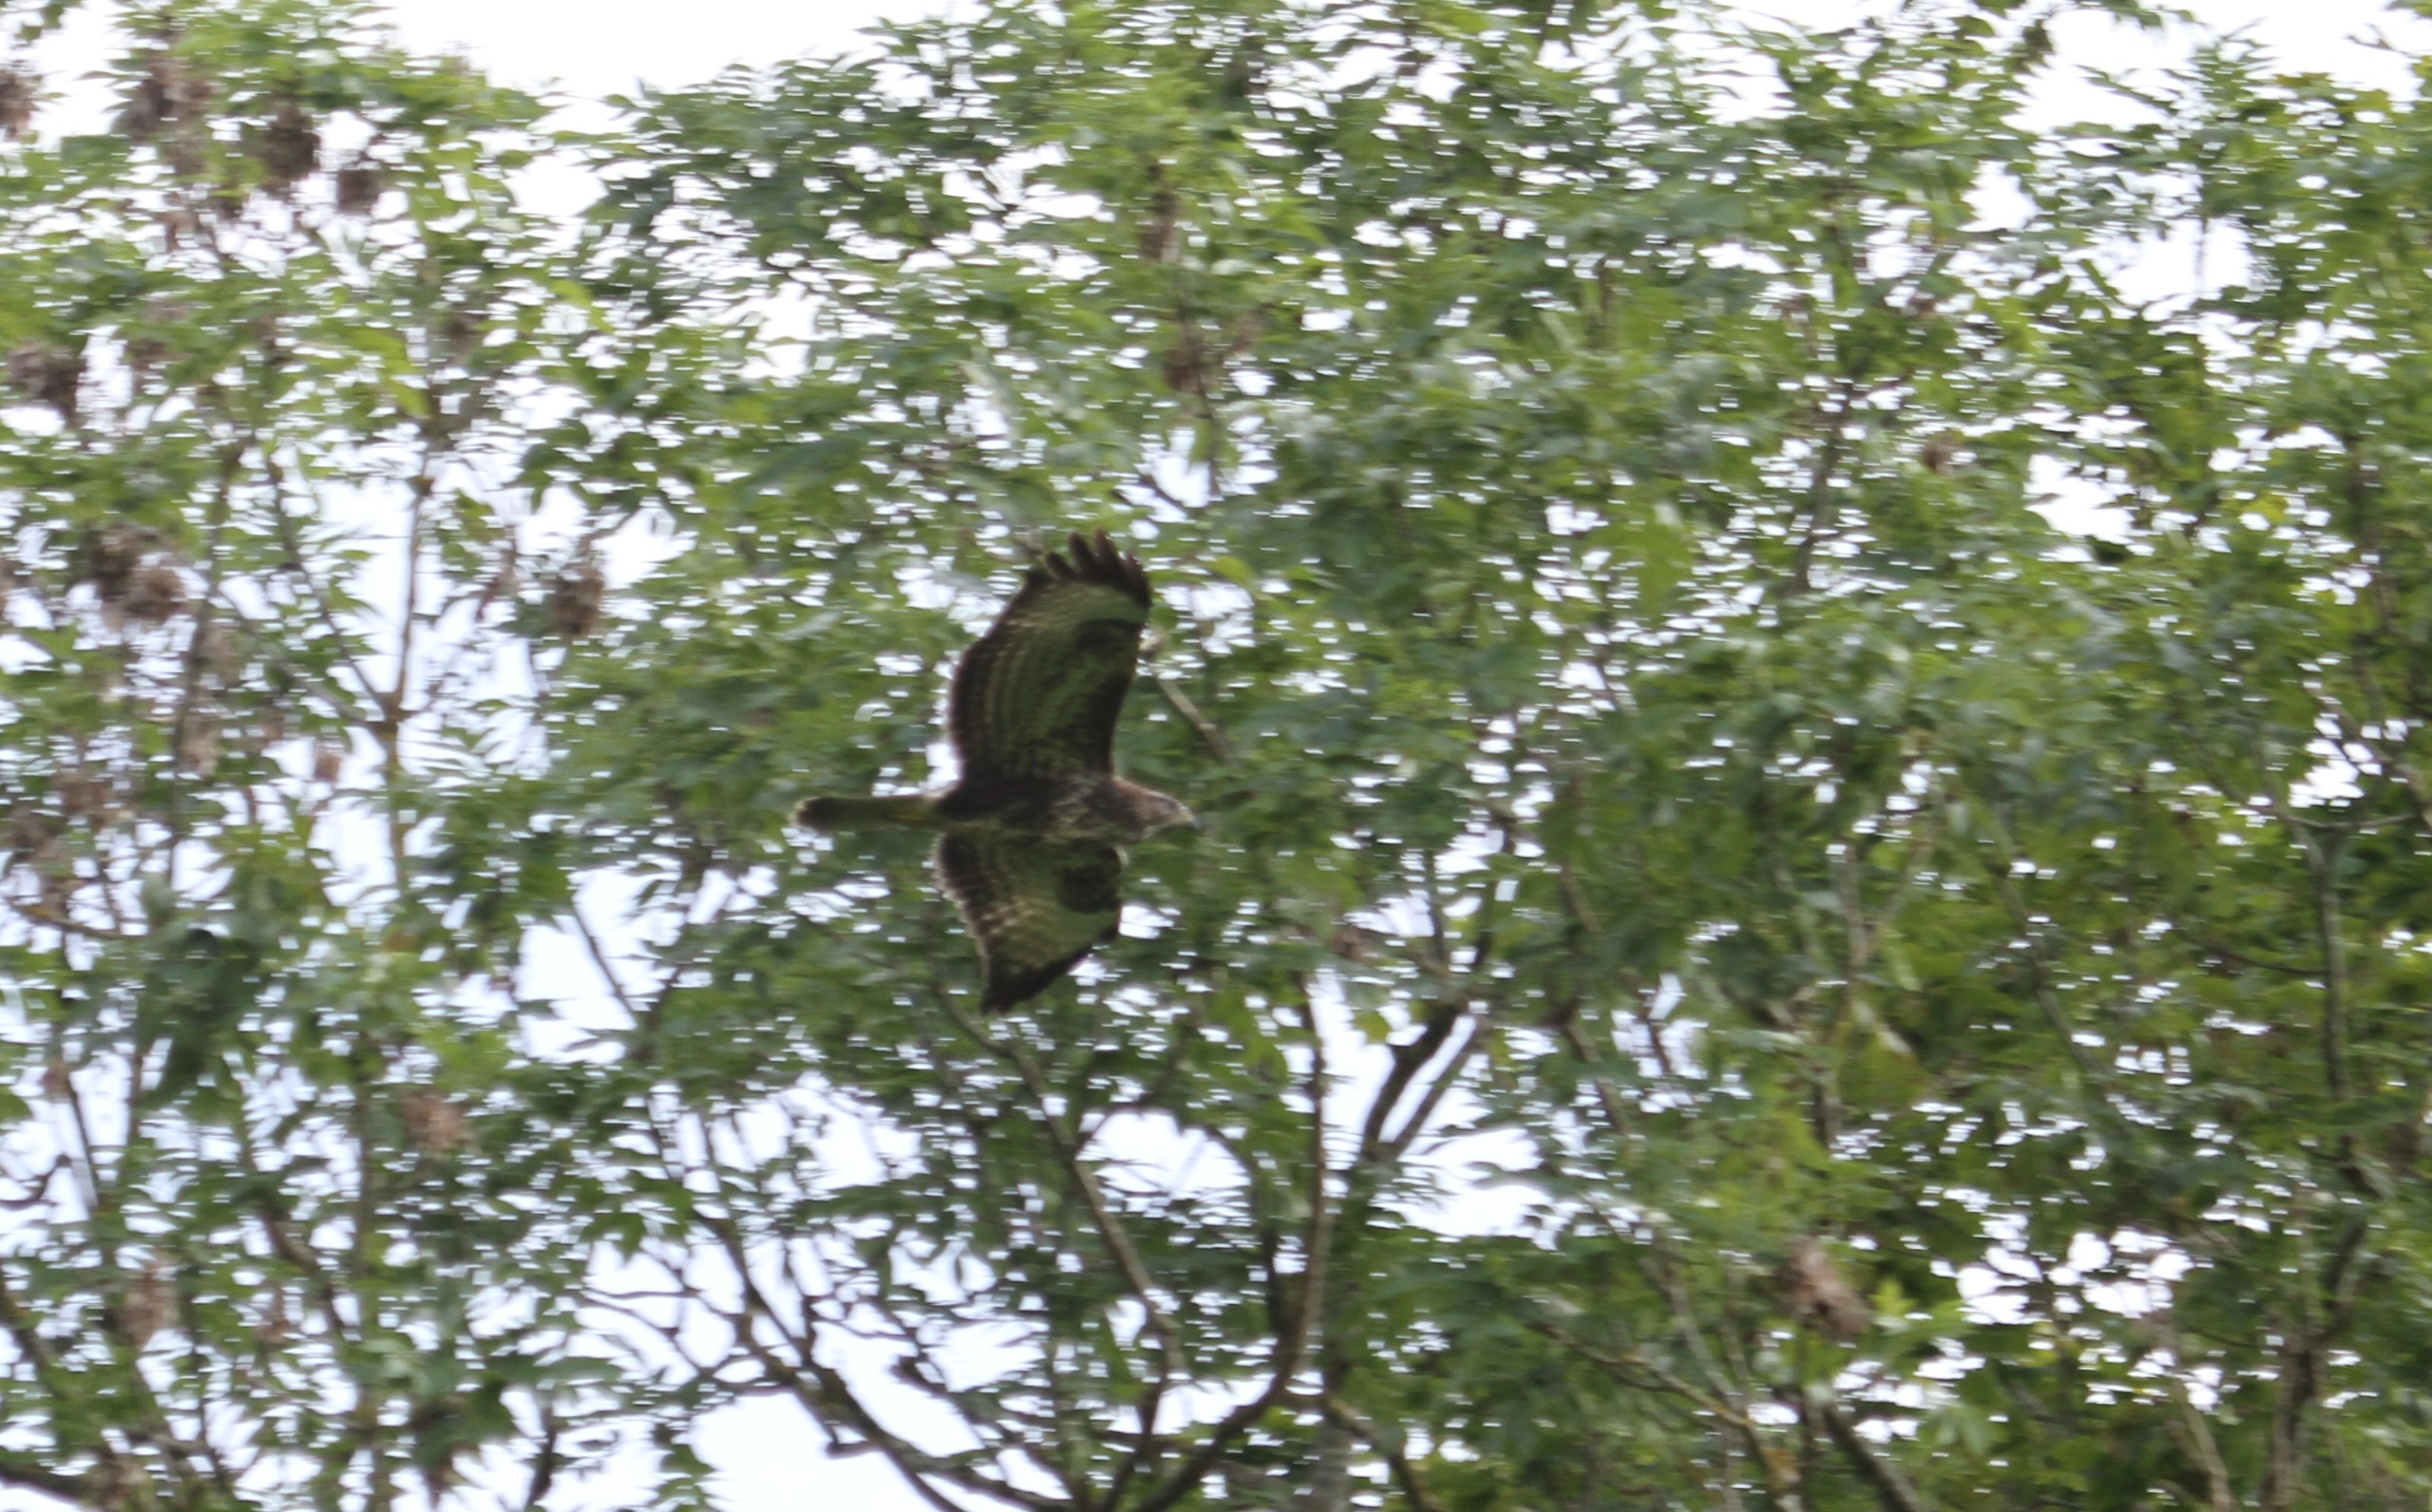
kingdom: Animalia
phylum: Chordata
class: Aves
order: Accipitriformes
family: Accipitridae
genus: Buteo
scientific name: Buteo buteo
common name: Musvåge
